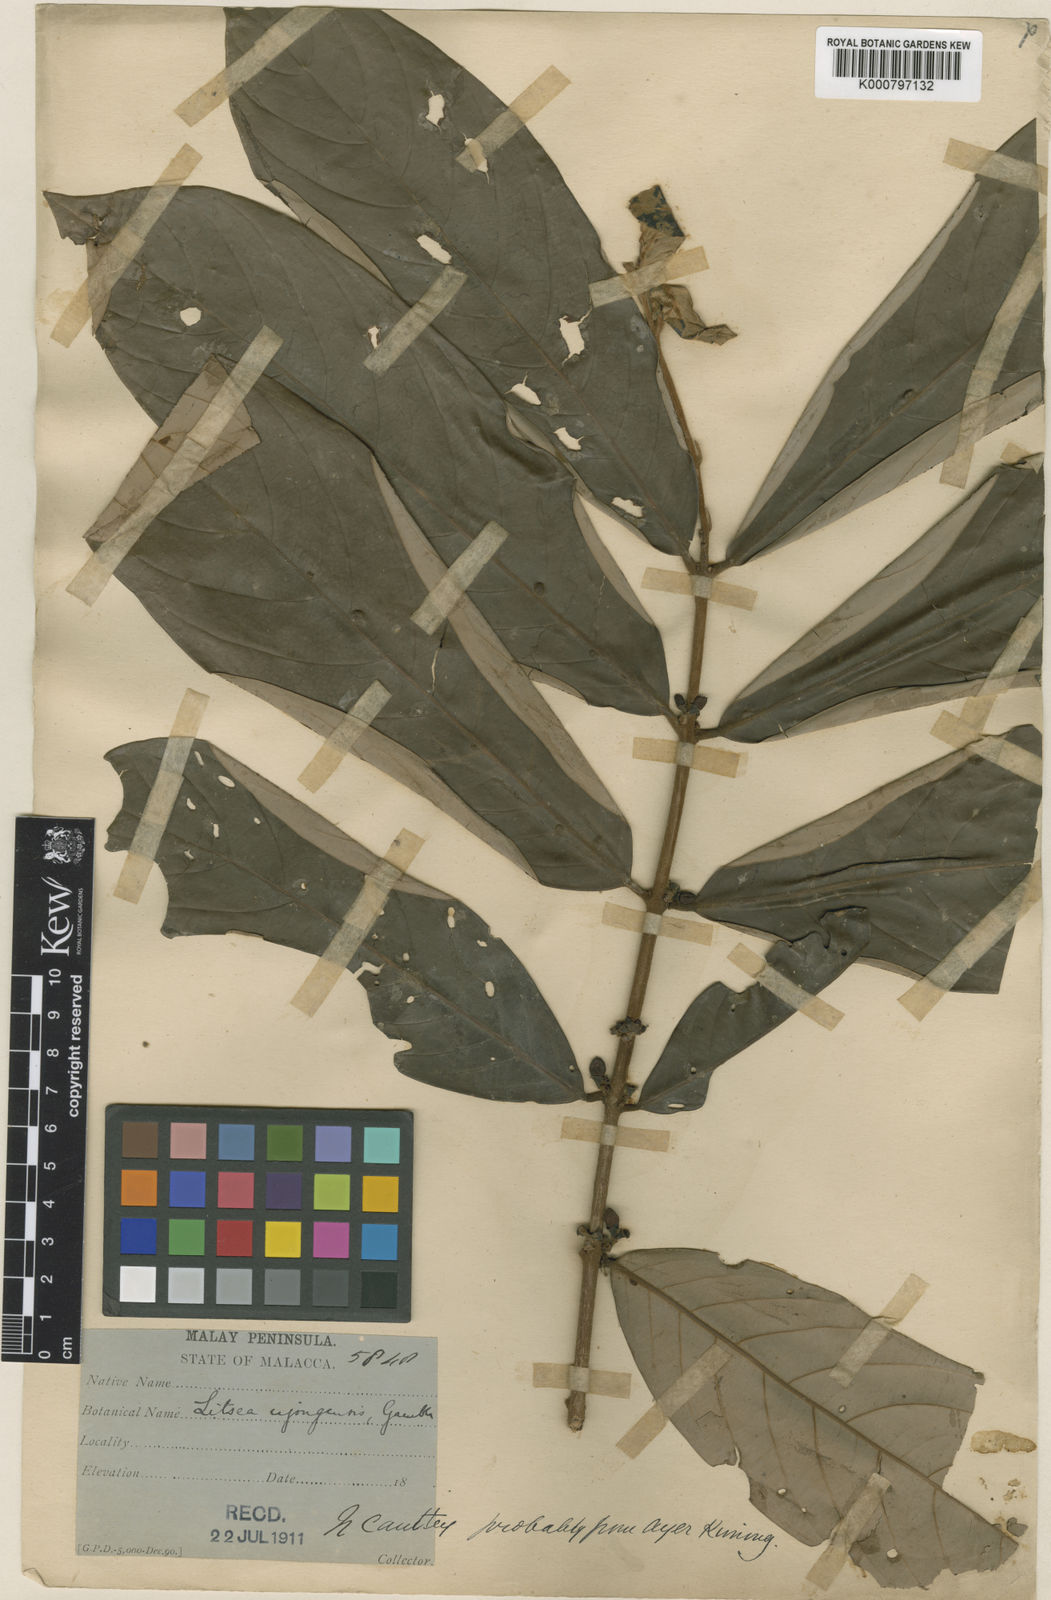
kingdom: Plantae
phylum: Tracheophyta
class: Magnoliopsida
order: Laurales
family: Lauraceae
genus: Litsea
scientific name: Litsea sessiliflora
